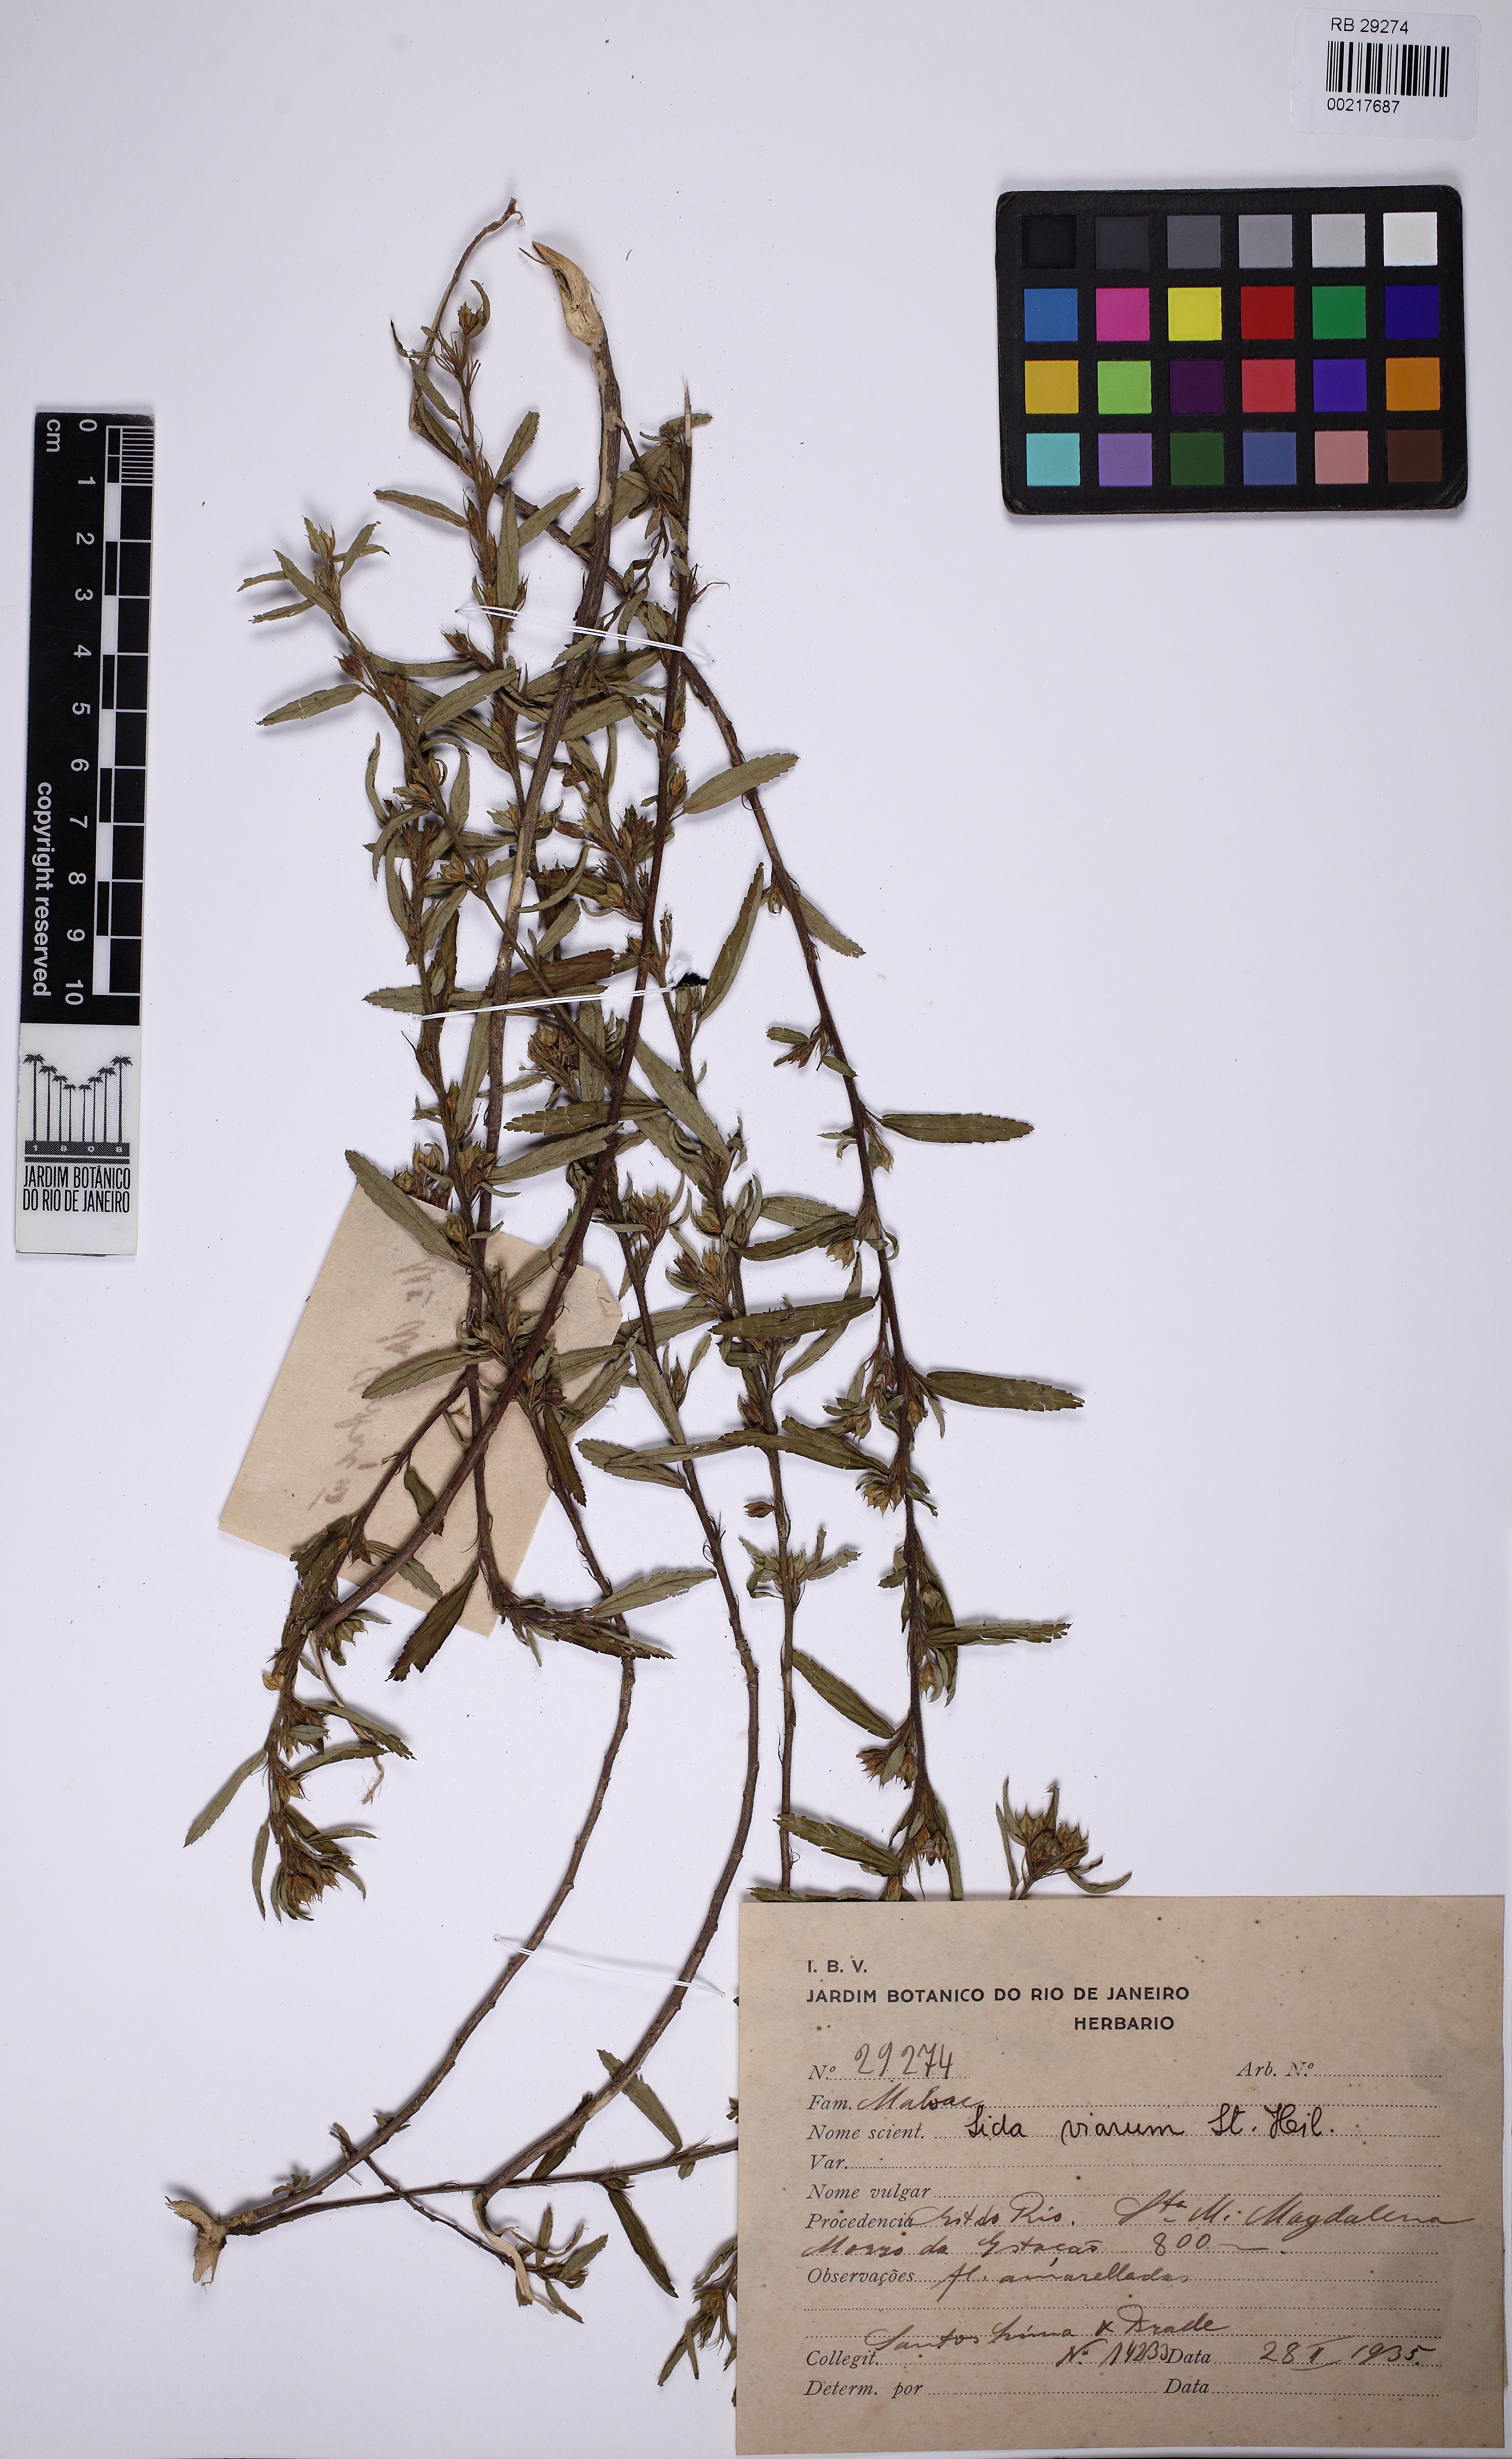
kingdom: Plantae
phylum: Tracheophyta
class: Magnoliopsida
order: Malvales
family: Malvaceae
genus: Sida
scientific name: Sida viarum
